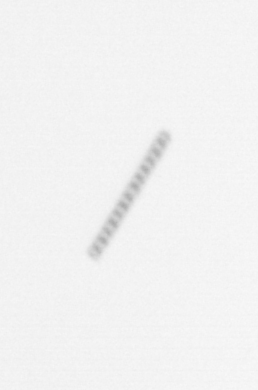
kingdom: Chromista
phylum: Ochrophyta
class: Bacillariophyceae
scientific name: Bacillariophyceae
